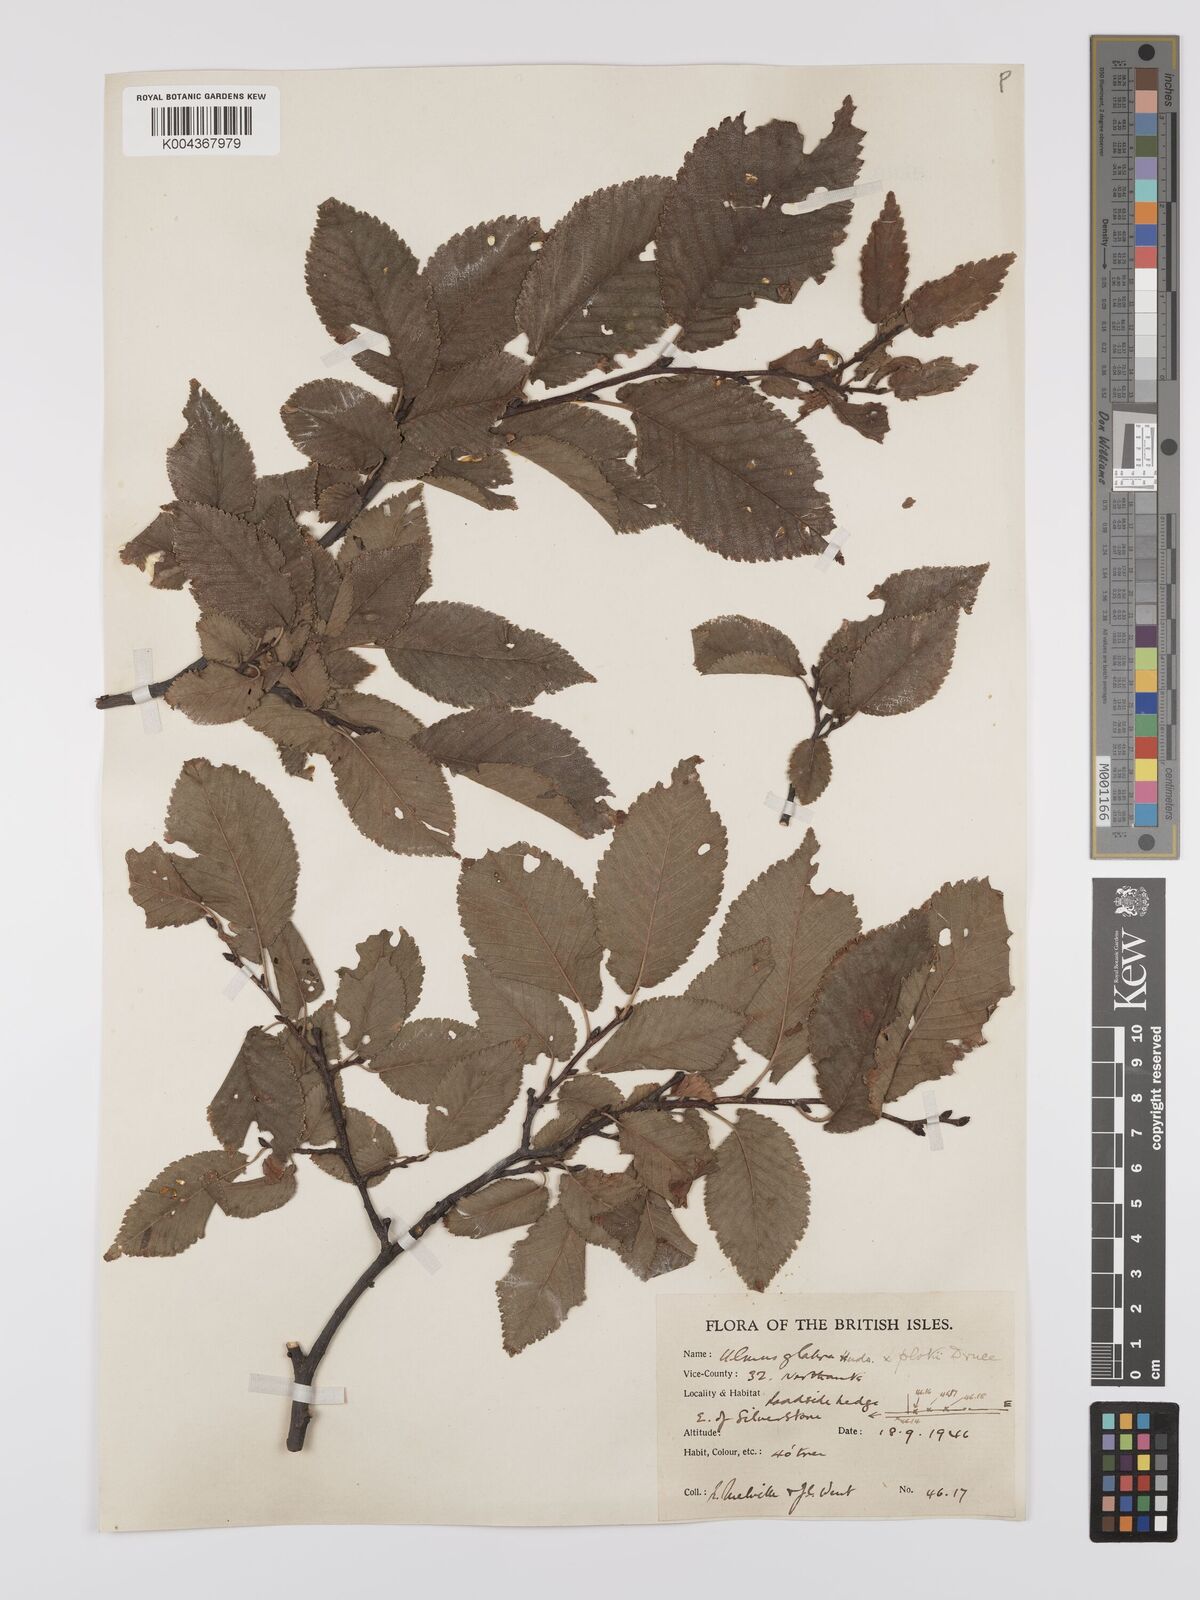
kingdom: Plantae
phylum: Tracheophyta
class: Magnoliopsida
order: Rosales
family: Ulmaceae
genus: Ulmus
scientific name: Ulmus
